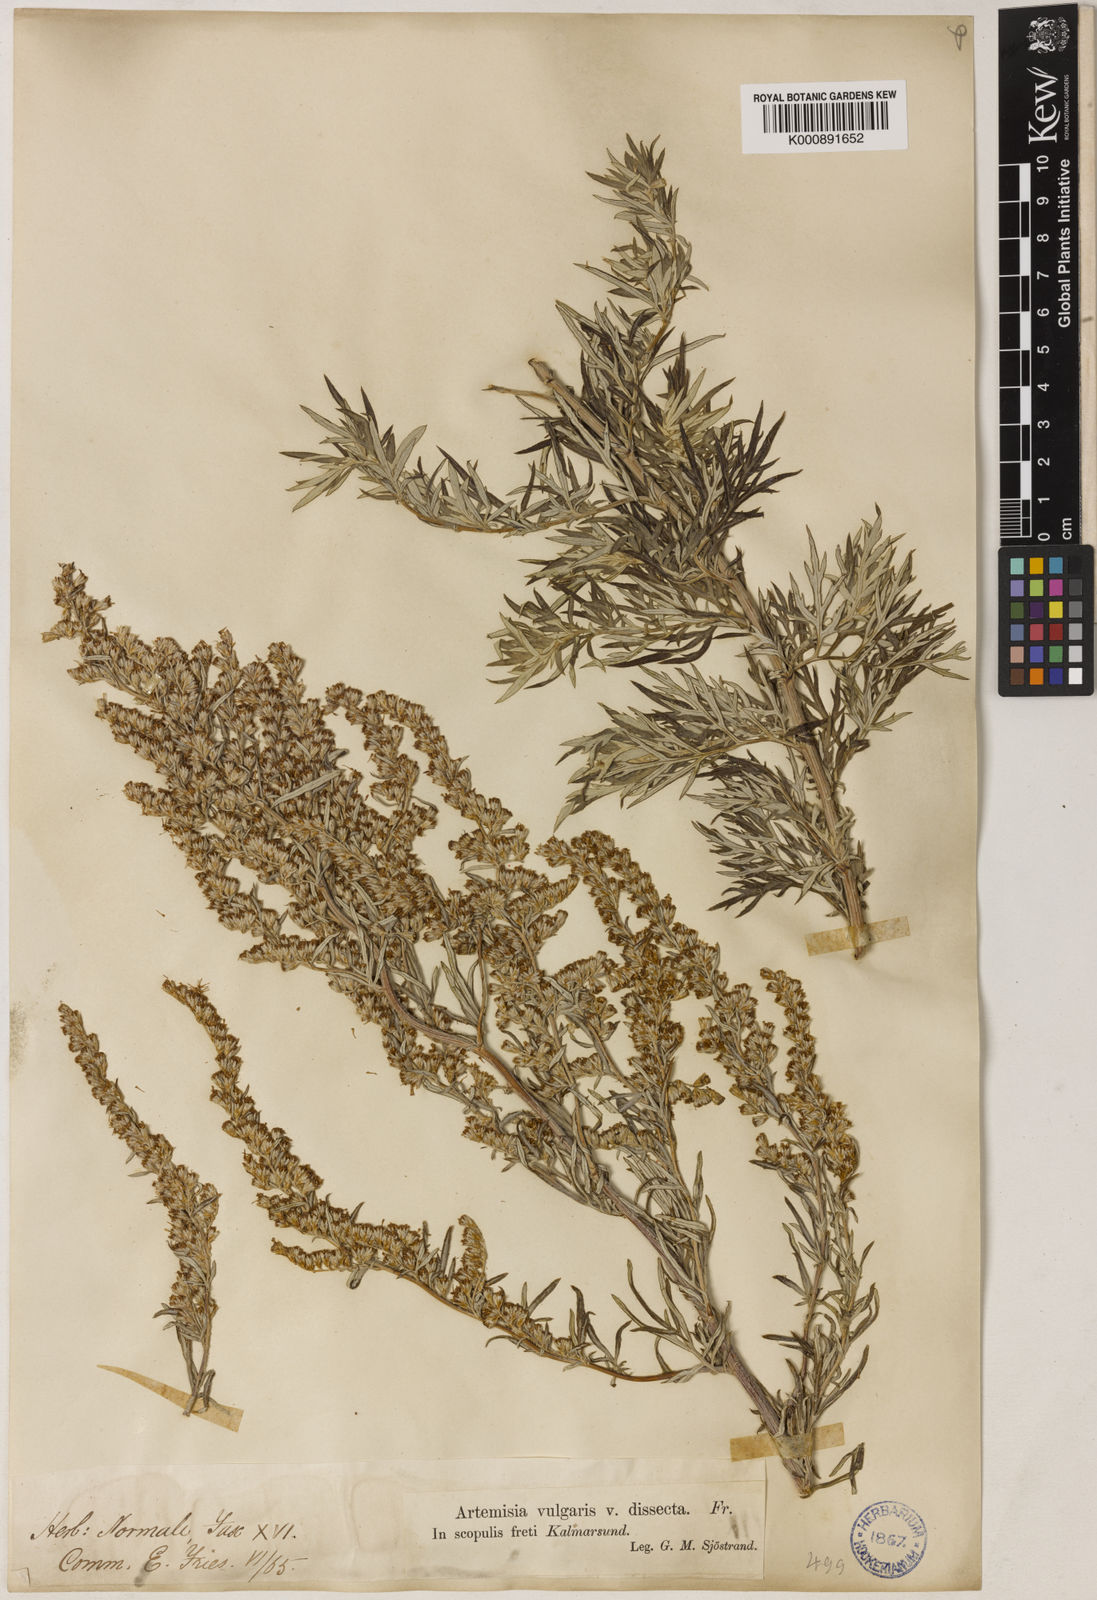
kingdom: Plantae
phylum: Tracheophyta
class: Magnoliopsida
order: Asterales
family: Asteraceae
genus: Artemisia
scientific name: Artemisia vulgaris
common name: Mugwort
